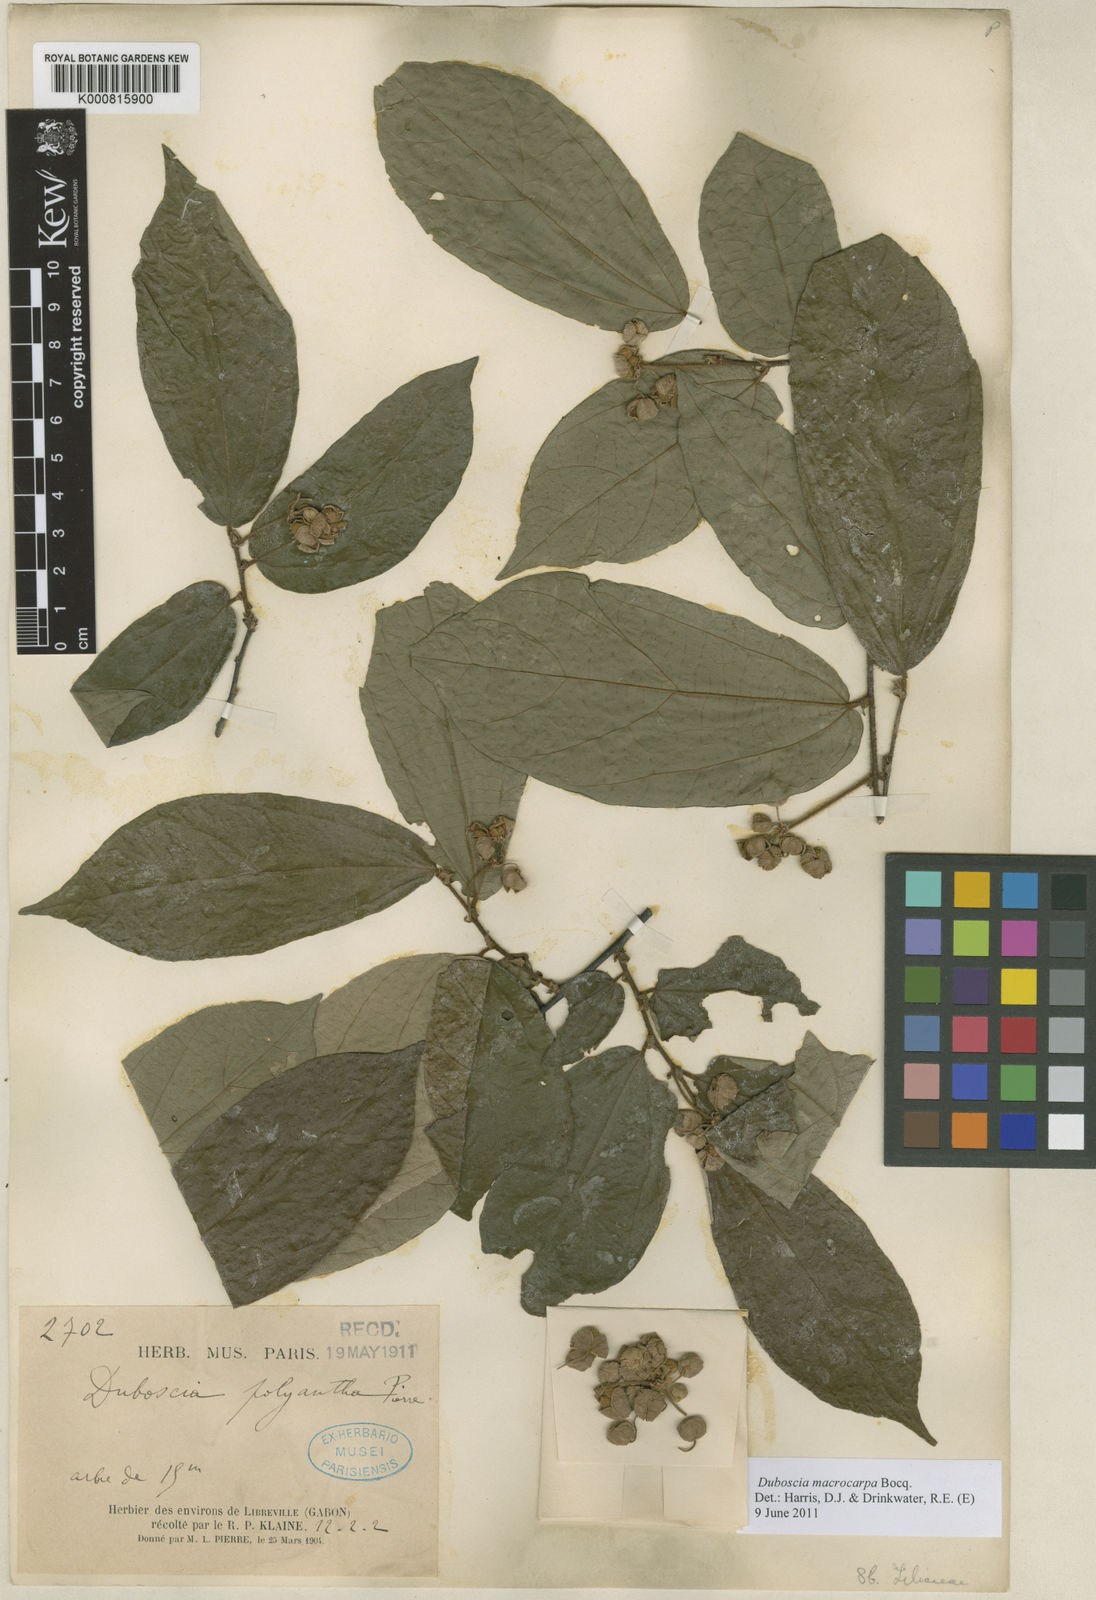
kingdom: Plantae
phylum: Tracheophyta
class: Magnoliopsida
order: Malvales
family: Malvaceae
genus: Duboscia
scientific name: Duboscia macrocarpa
